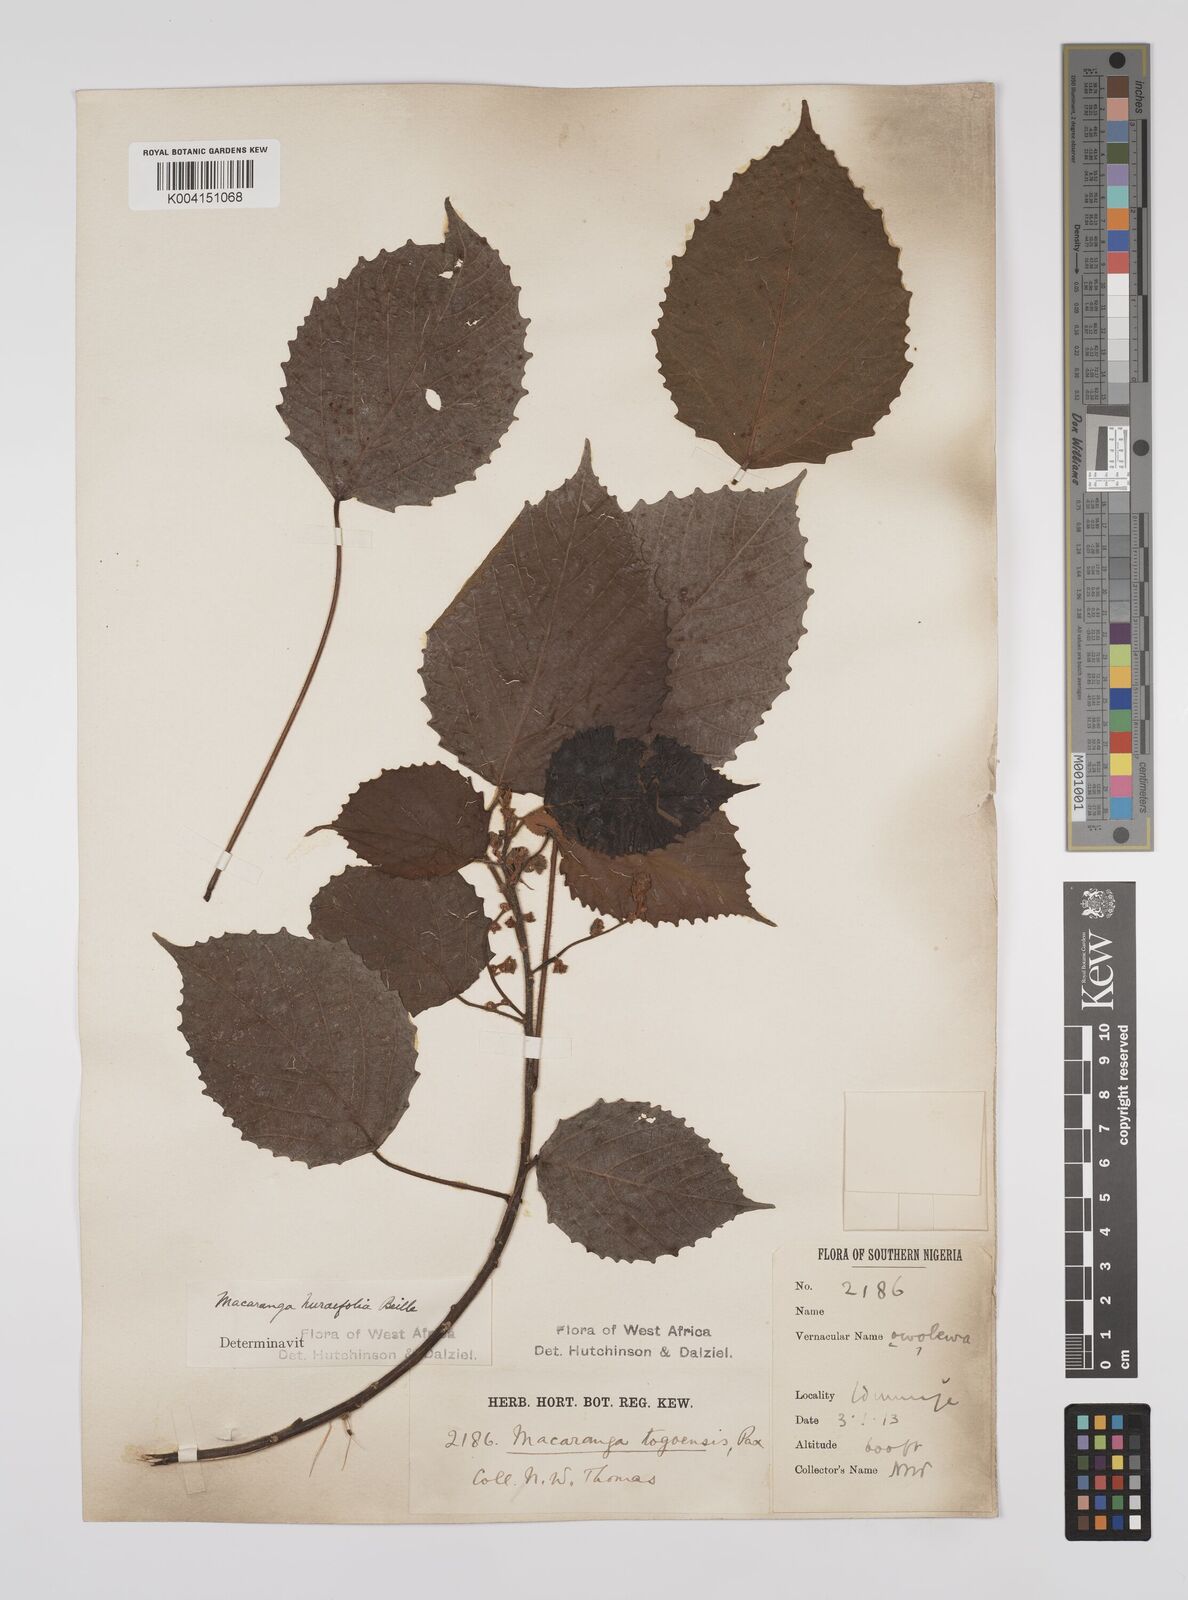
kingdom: Plantae
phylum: Tracheophyta
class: Magnoliopsida
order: Malpighiales
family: Euphorbiaceae
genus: Macaranga
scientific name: Macaranga hurifolia
